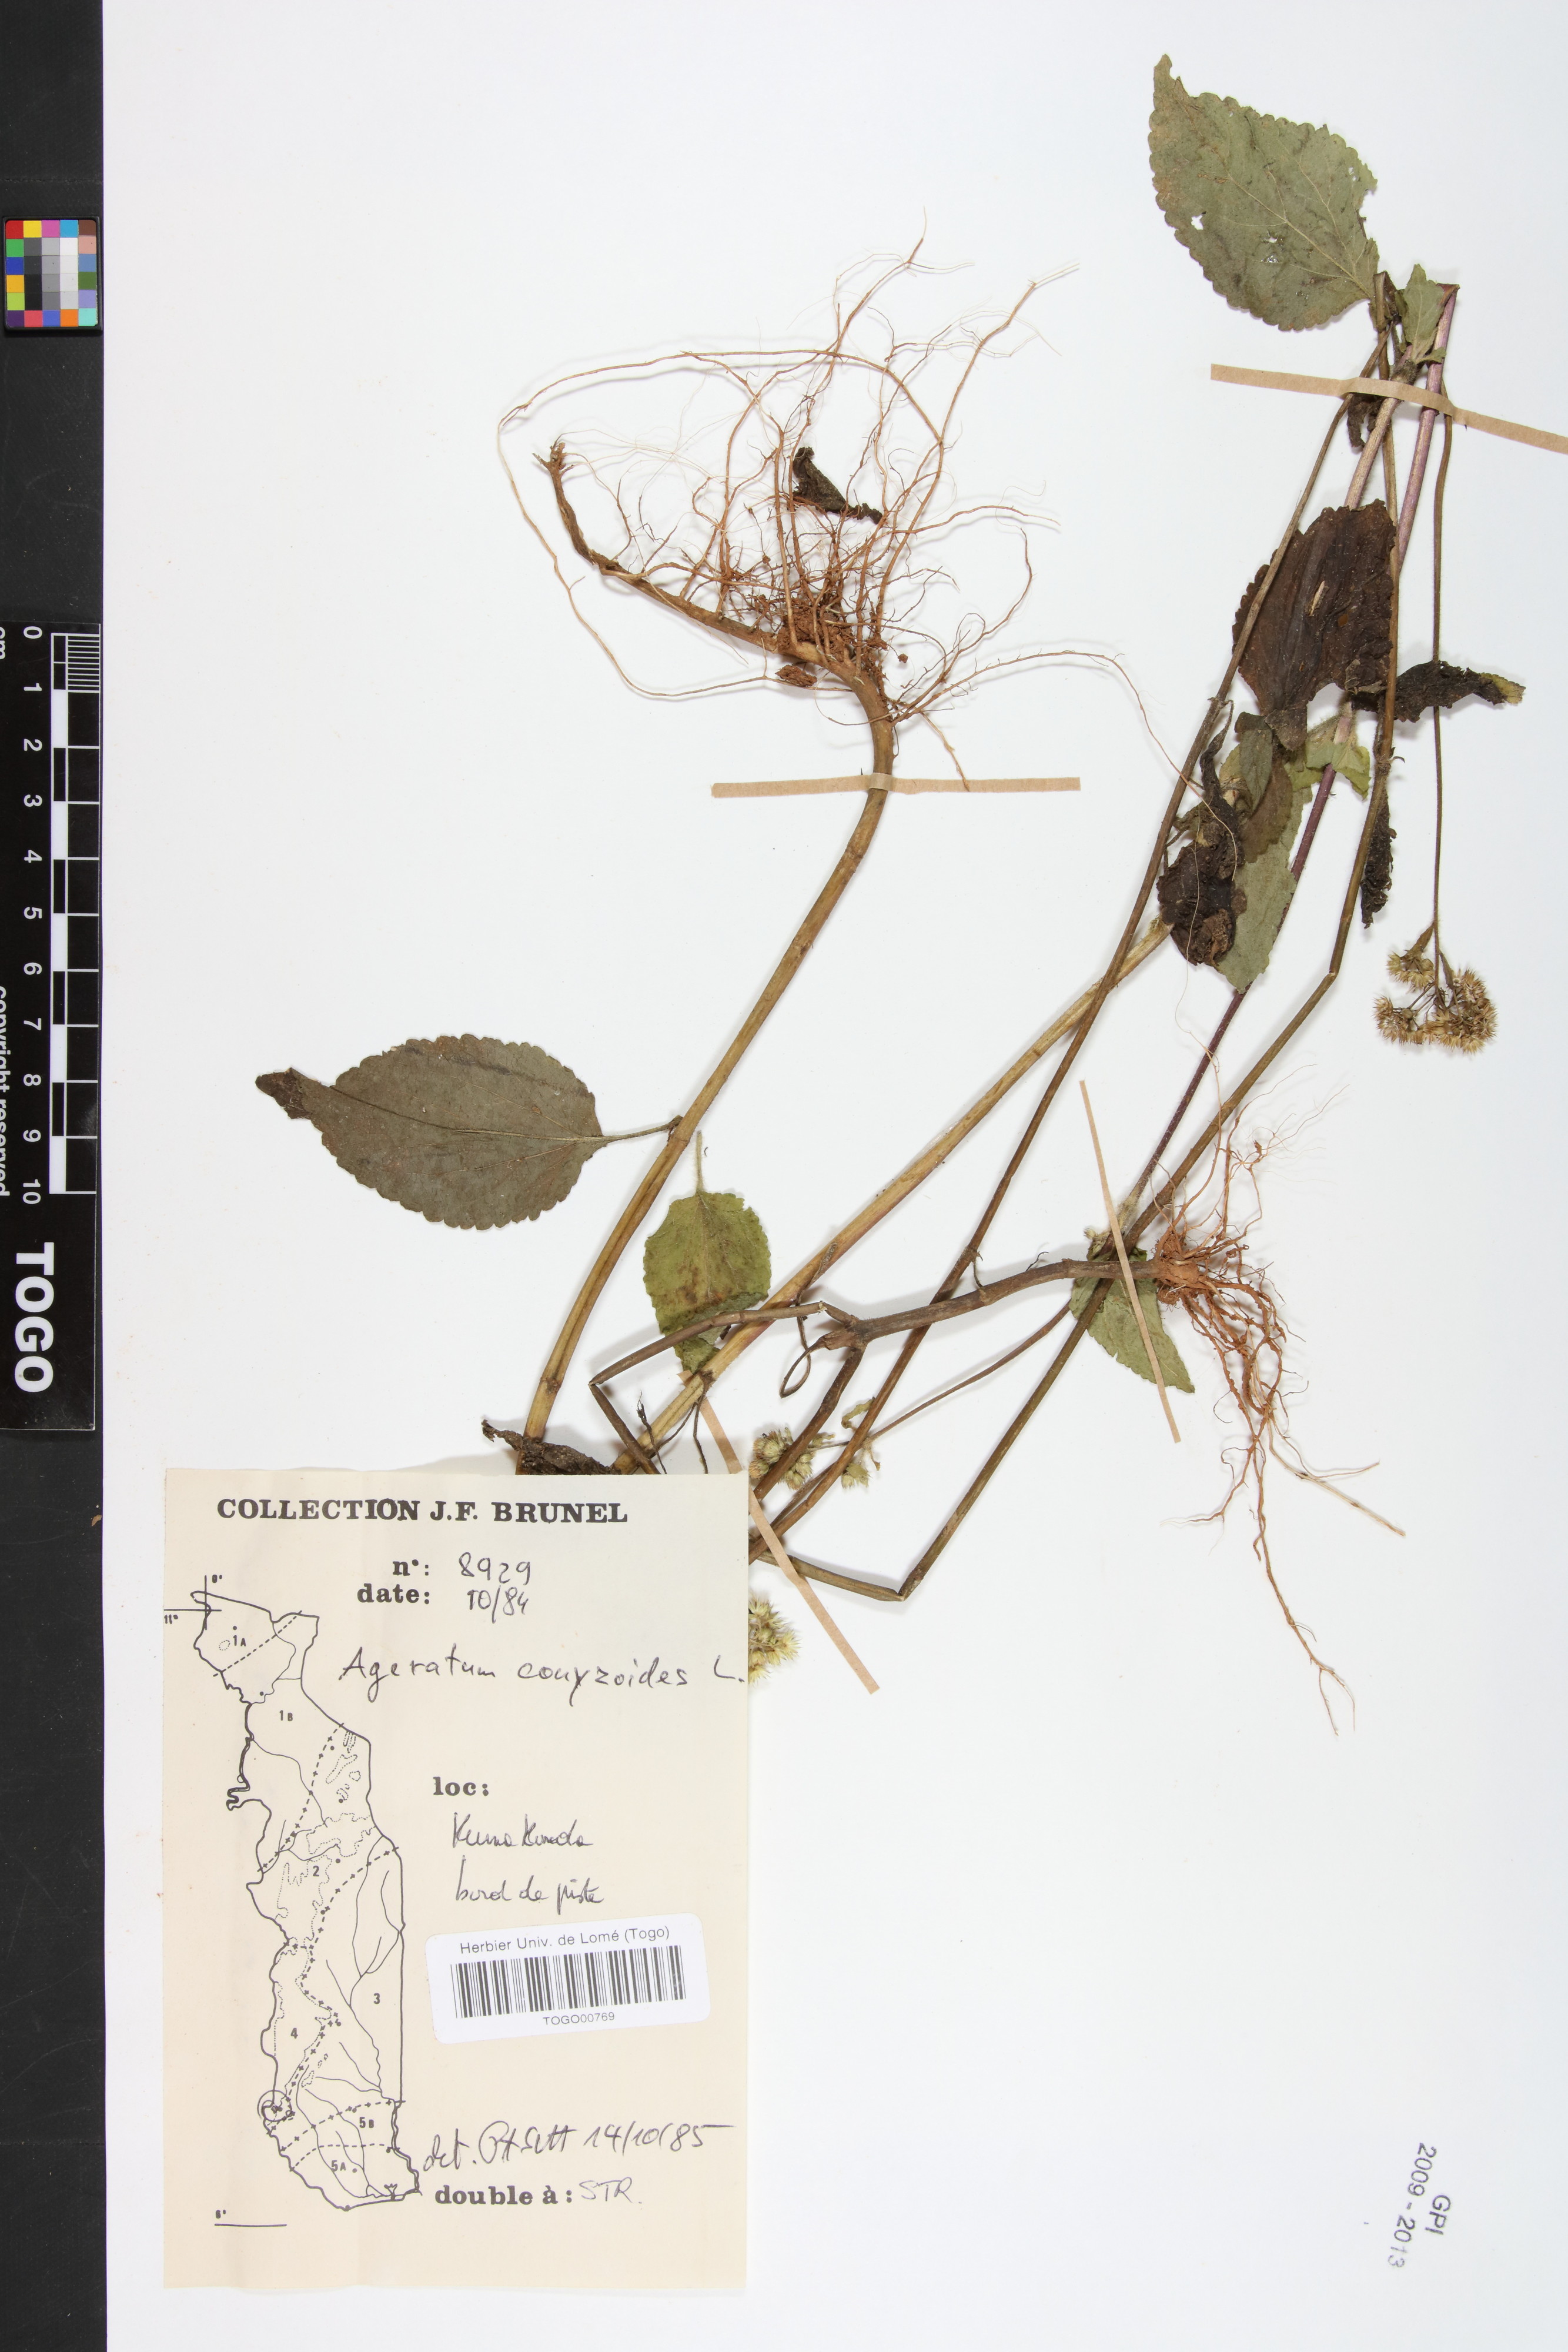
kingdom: Plantae
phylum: Tracheophyta
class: Magnoliopsida
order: Asterales
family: Asteraceae
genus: Ageratum
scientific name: Ageratum conyzoides
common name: Tropical whiteweed
